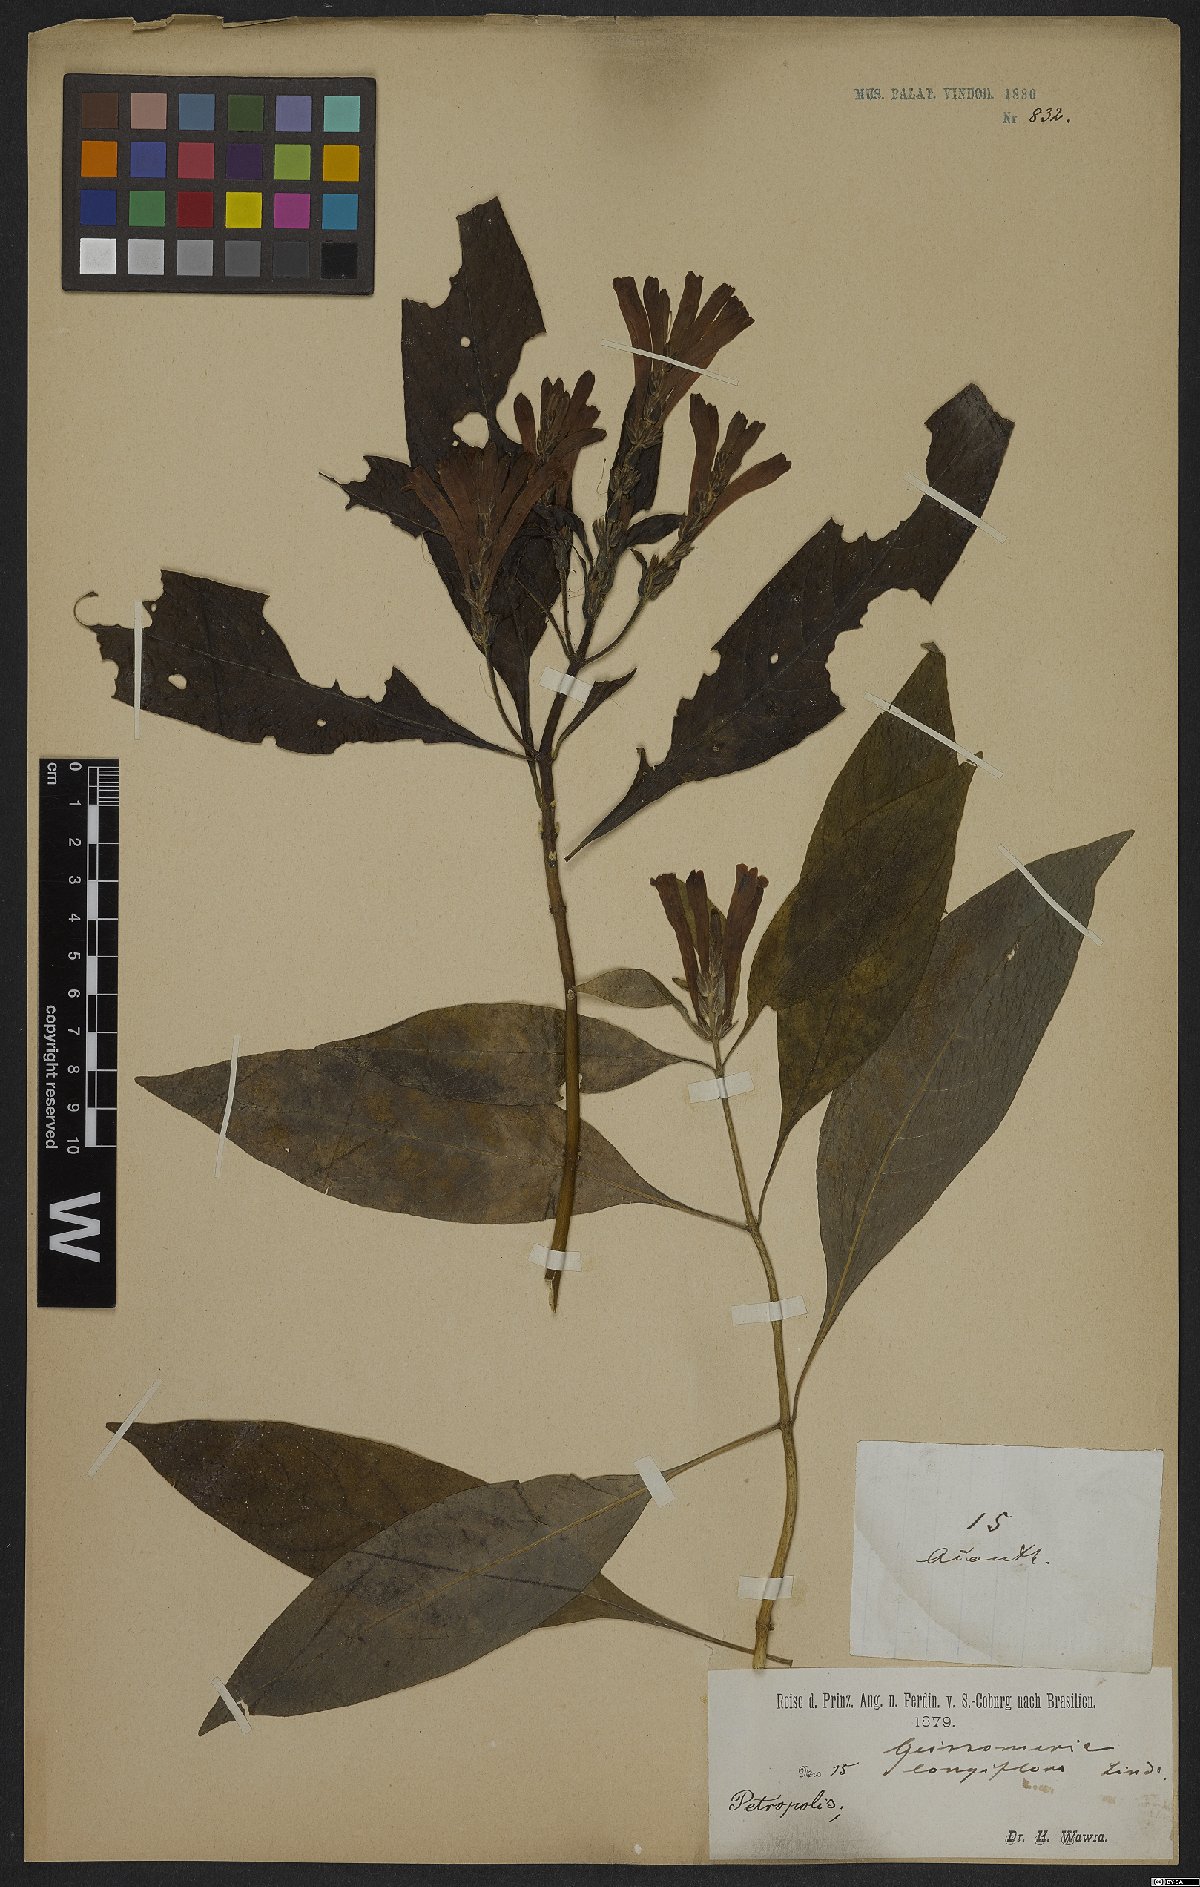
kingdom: Plantae
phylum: Tracheophyta
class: Magnoliopsida
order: Lamiales
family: Acanthaceae
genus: Aphelandra
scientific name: Aphelandra longiflora
